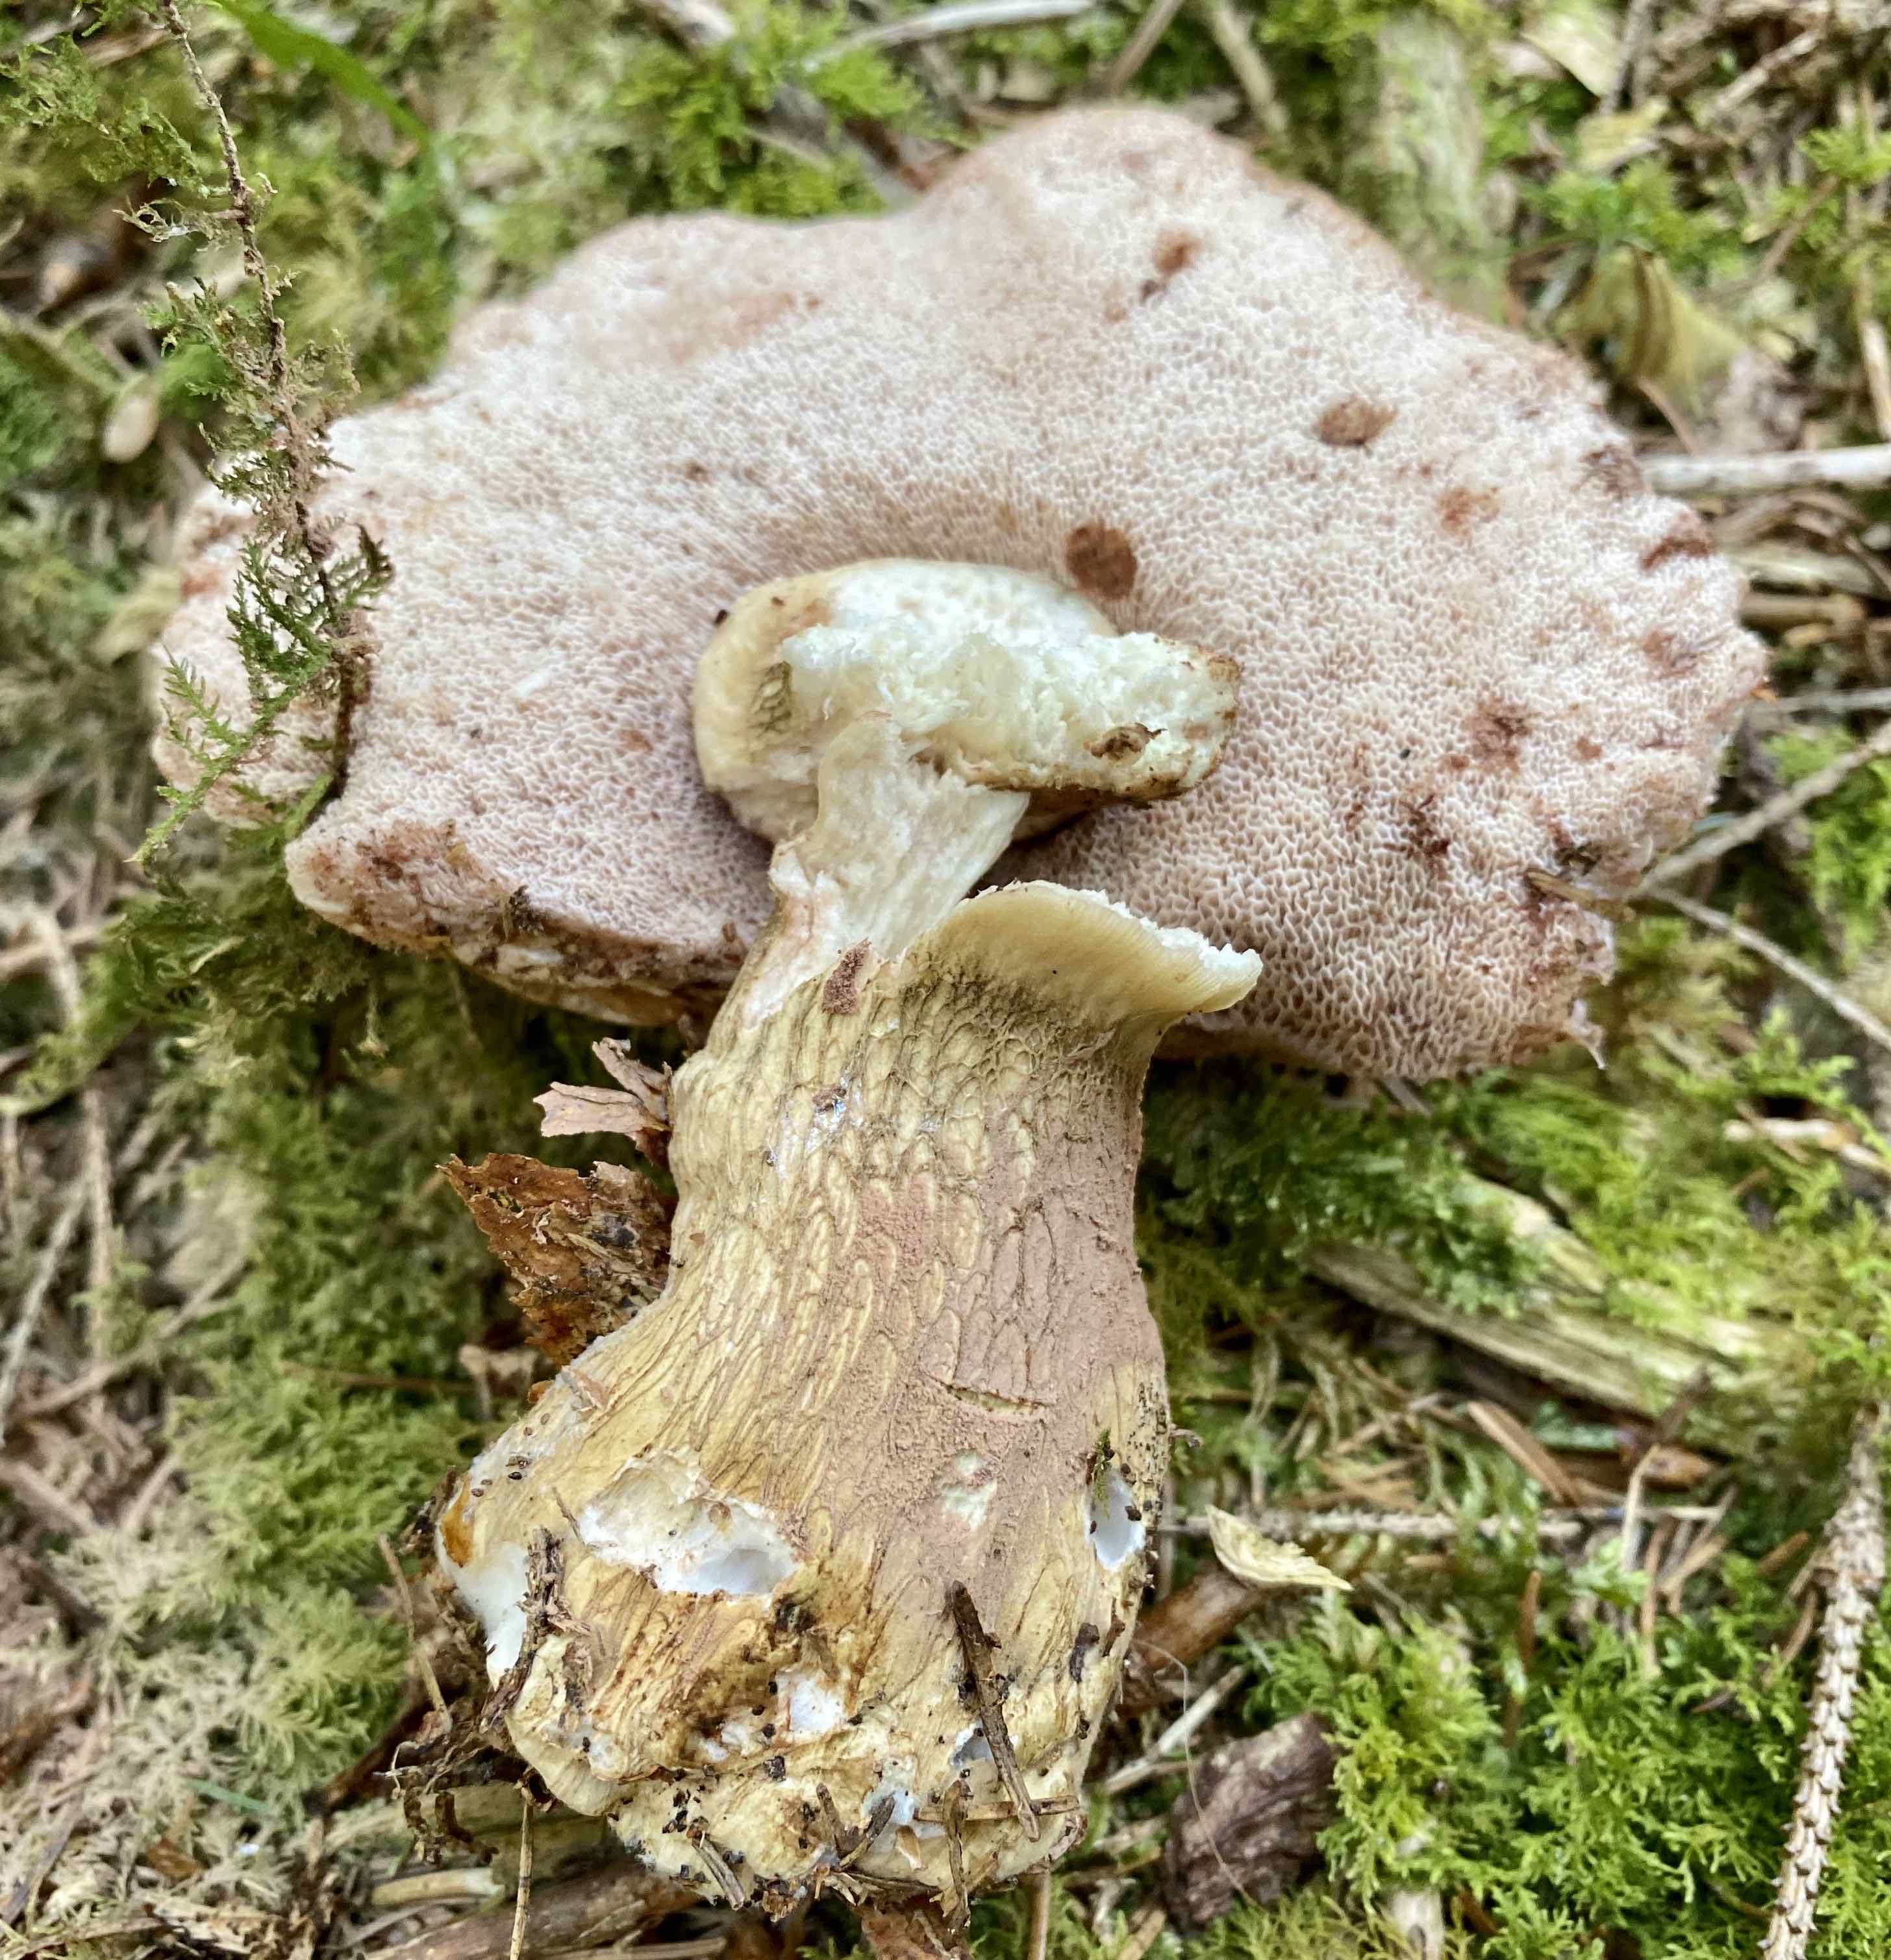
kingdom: Fungi
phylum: Basidiomycota
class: Agaricomycetes
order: Boletales
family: Boletaceae
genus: Tylopilus
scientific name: Tylopilus felleus
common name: galderørhat
